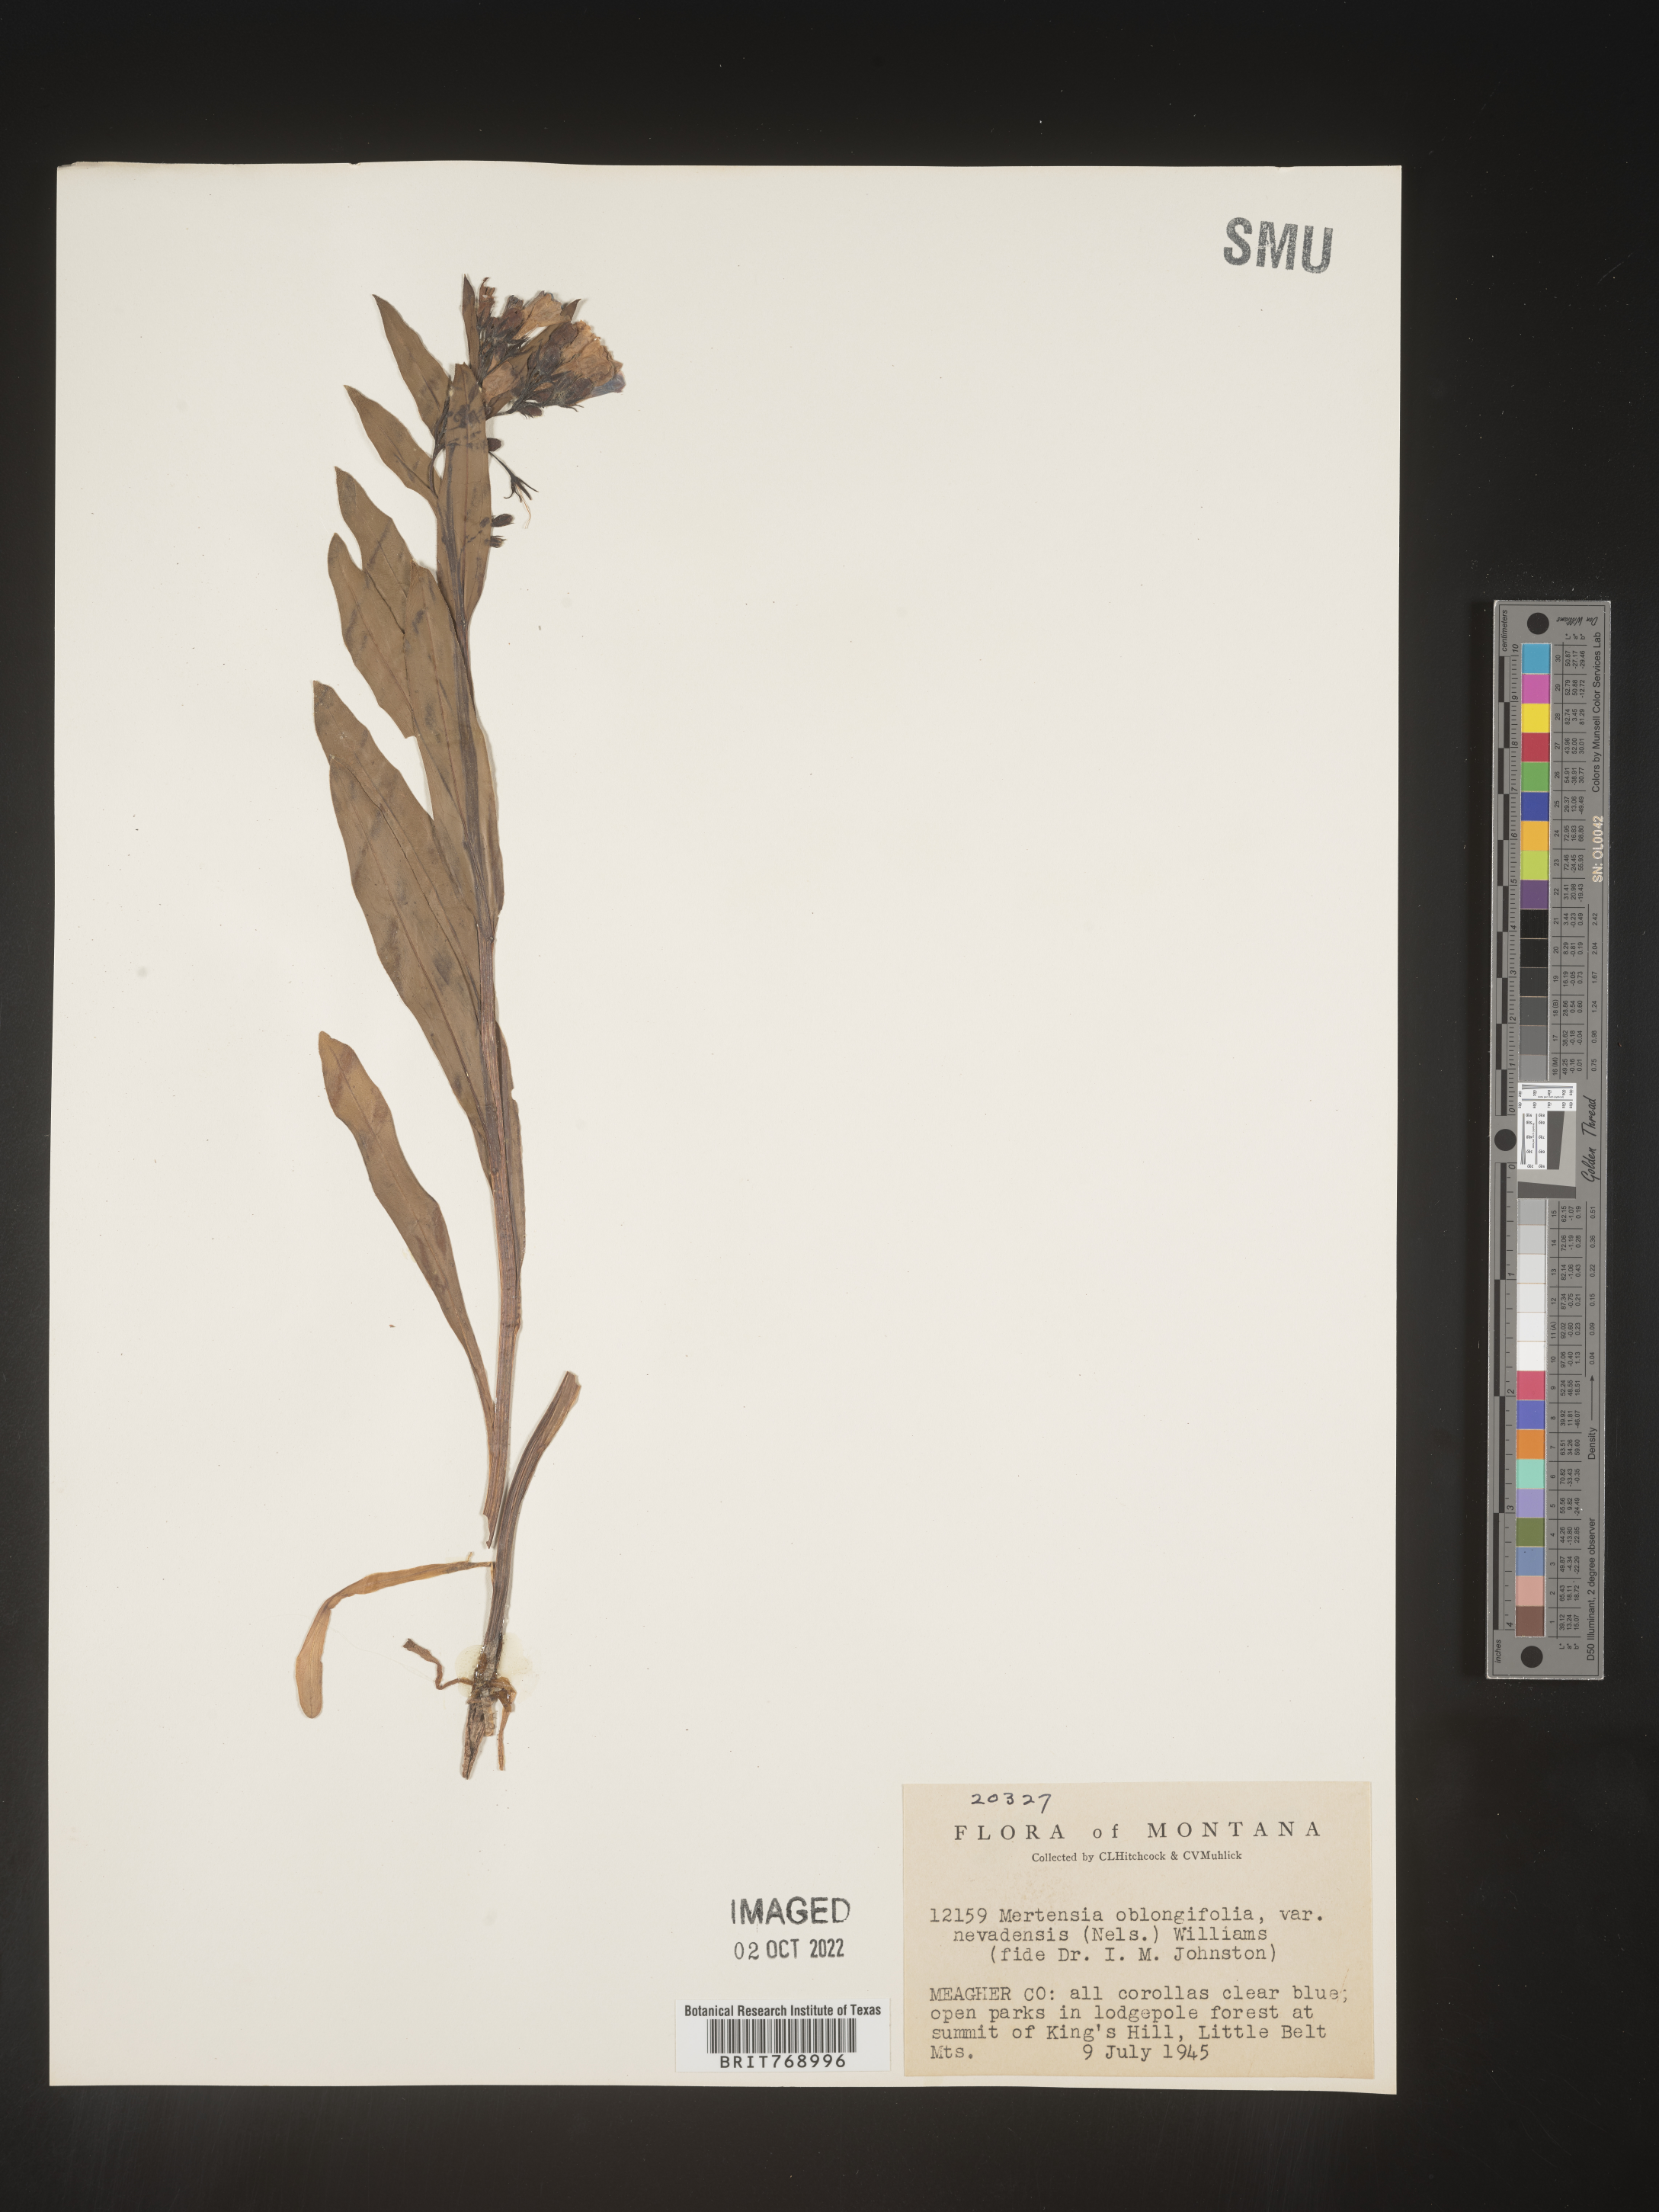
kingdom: Plantae
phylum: Tracheophyta
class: Magnoliopsida
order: Boraginales
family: Boraginaceae
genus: Mertensia
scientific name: Mertensia
